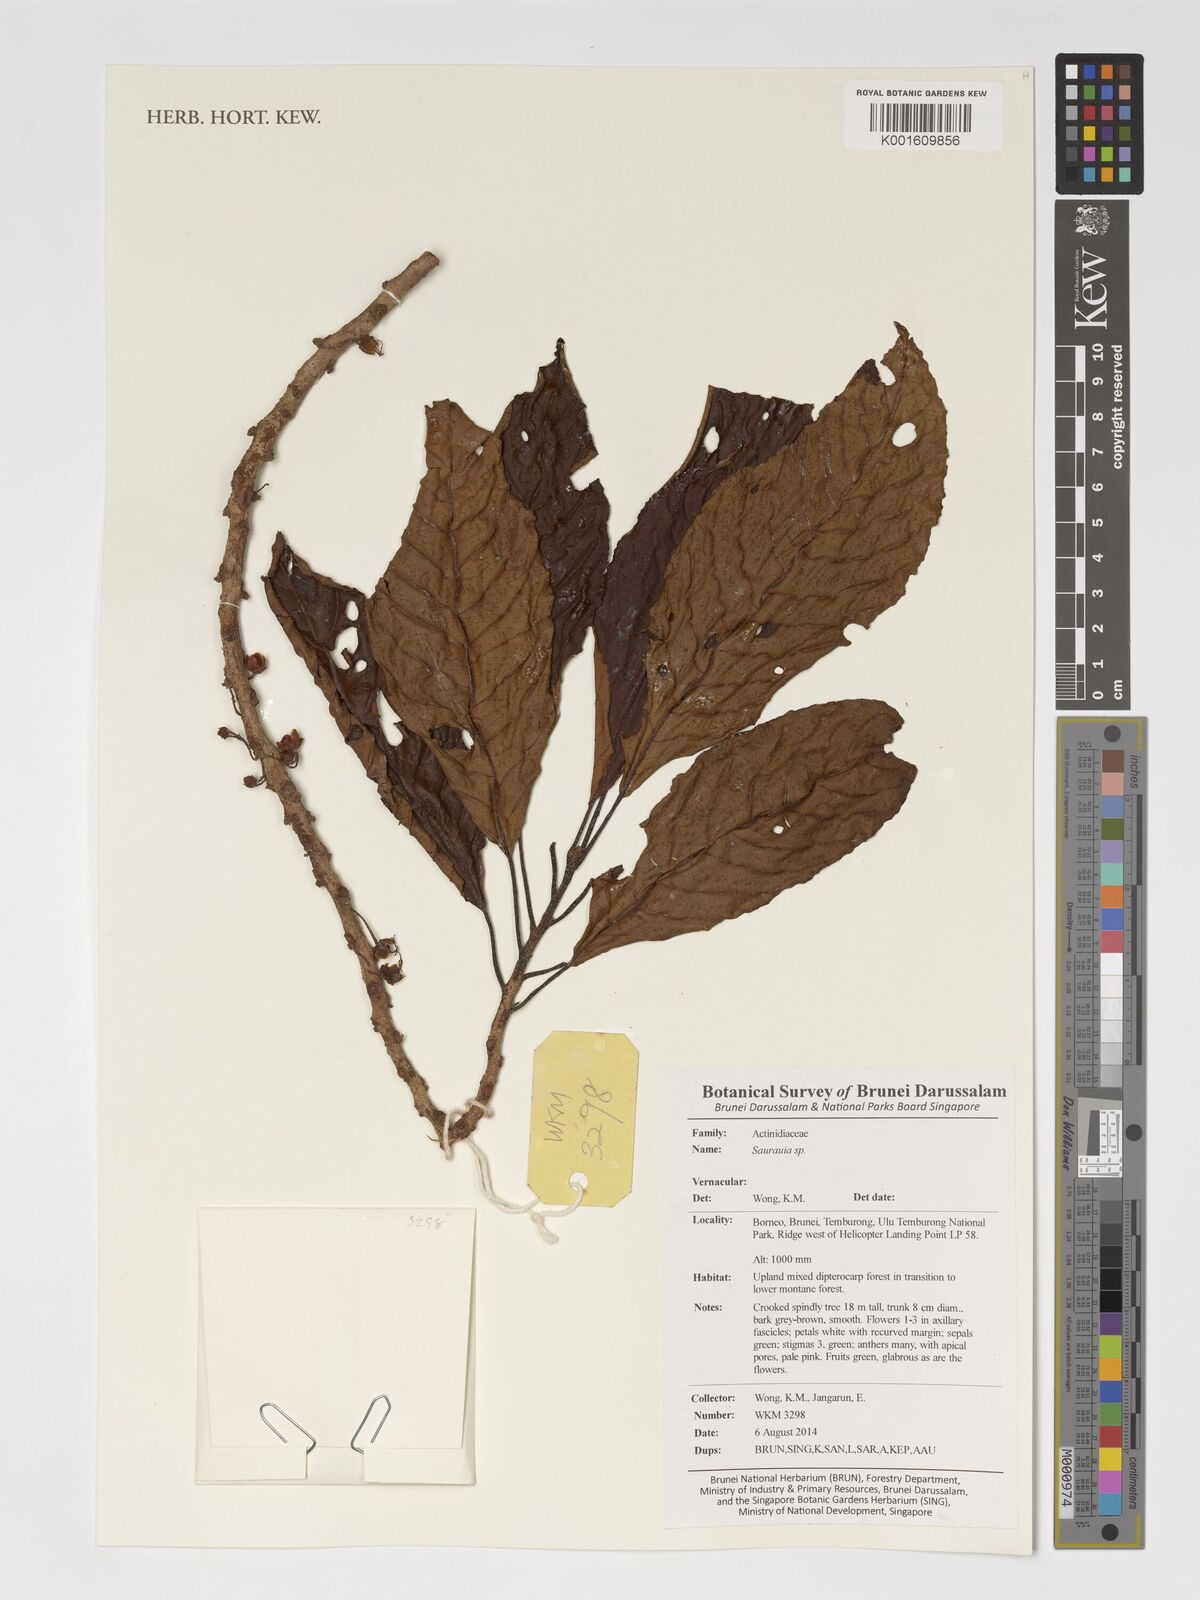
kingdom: Plantae
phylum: Tracheophyta
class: Magnoliopsida
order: Ericales
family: Actinidiaceae
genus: Saurauia
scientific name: Saurauia
